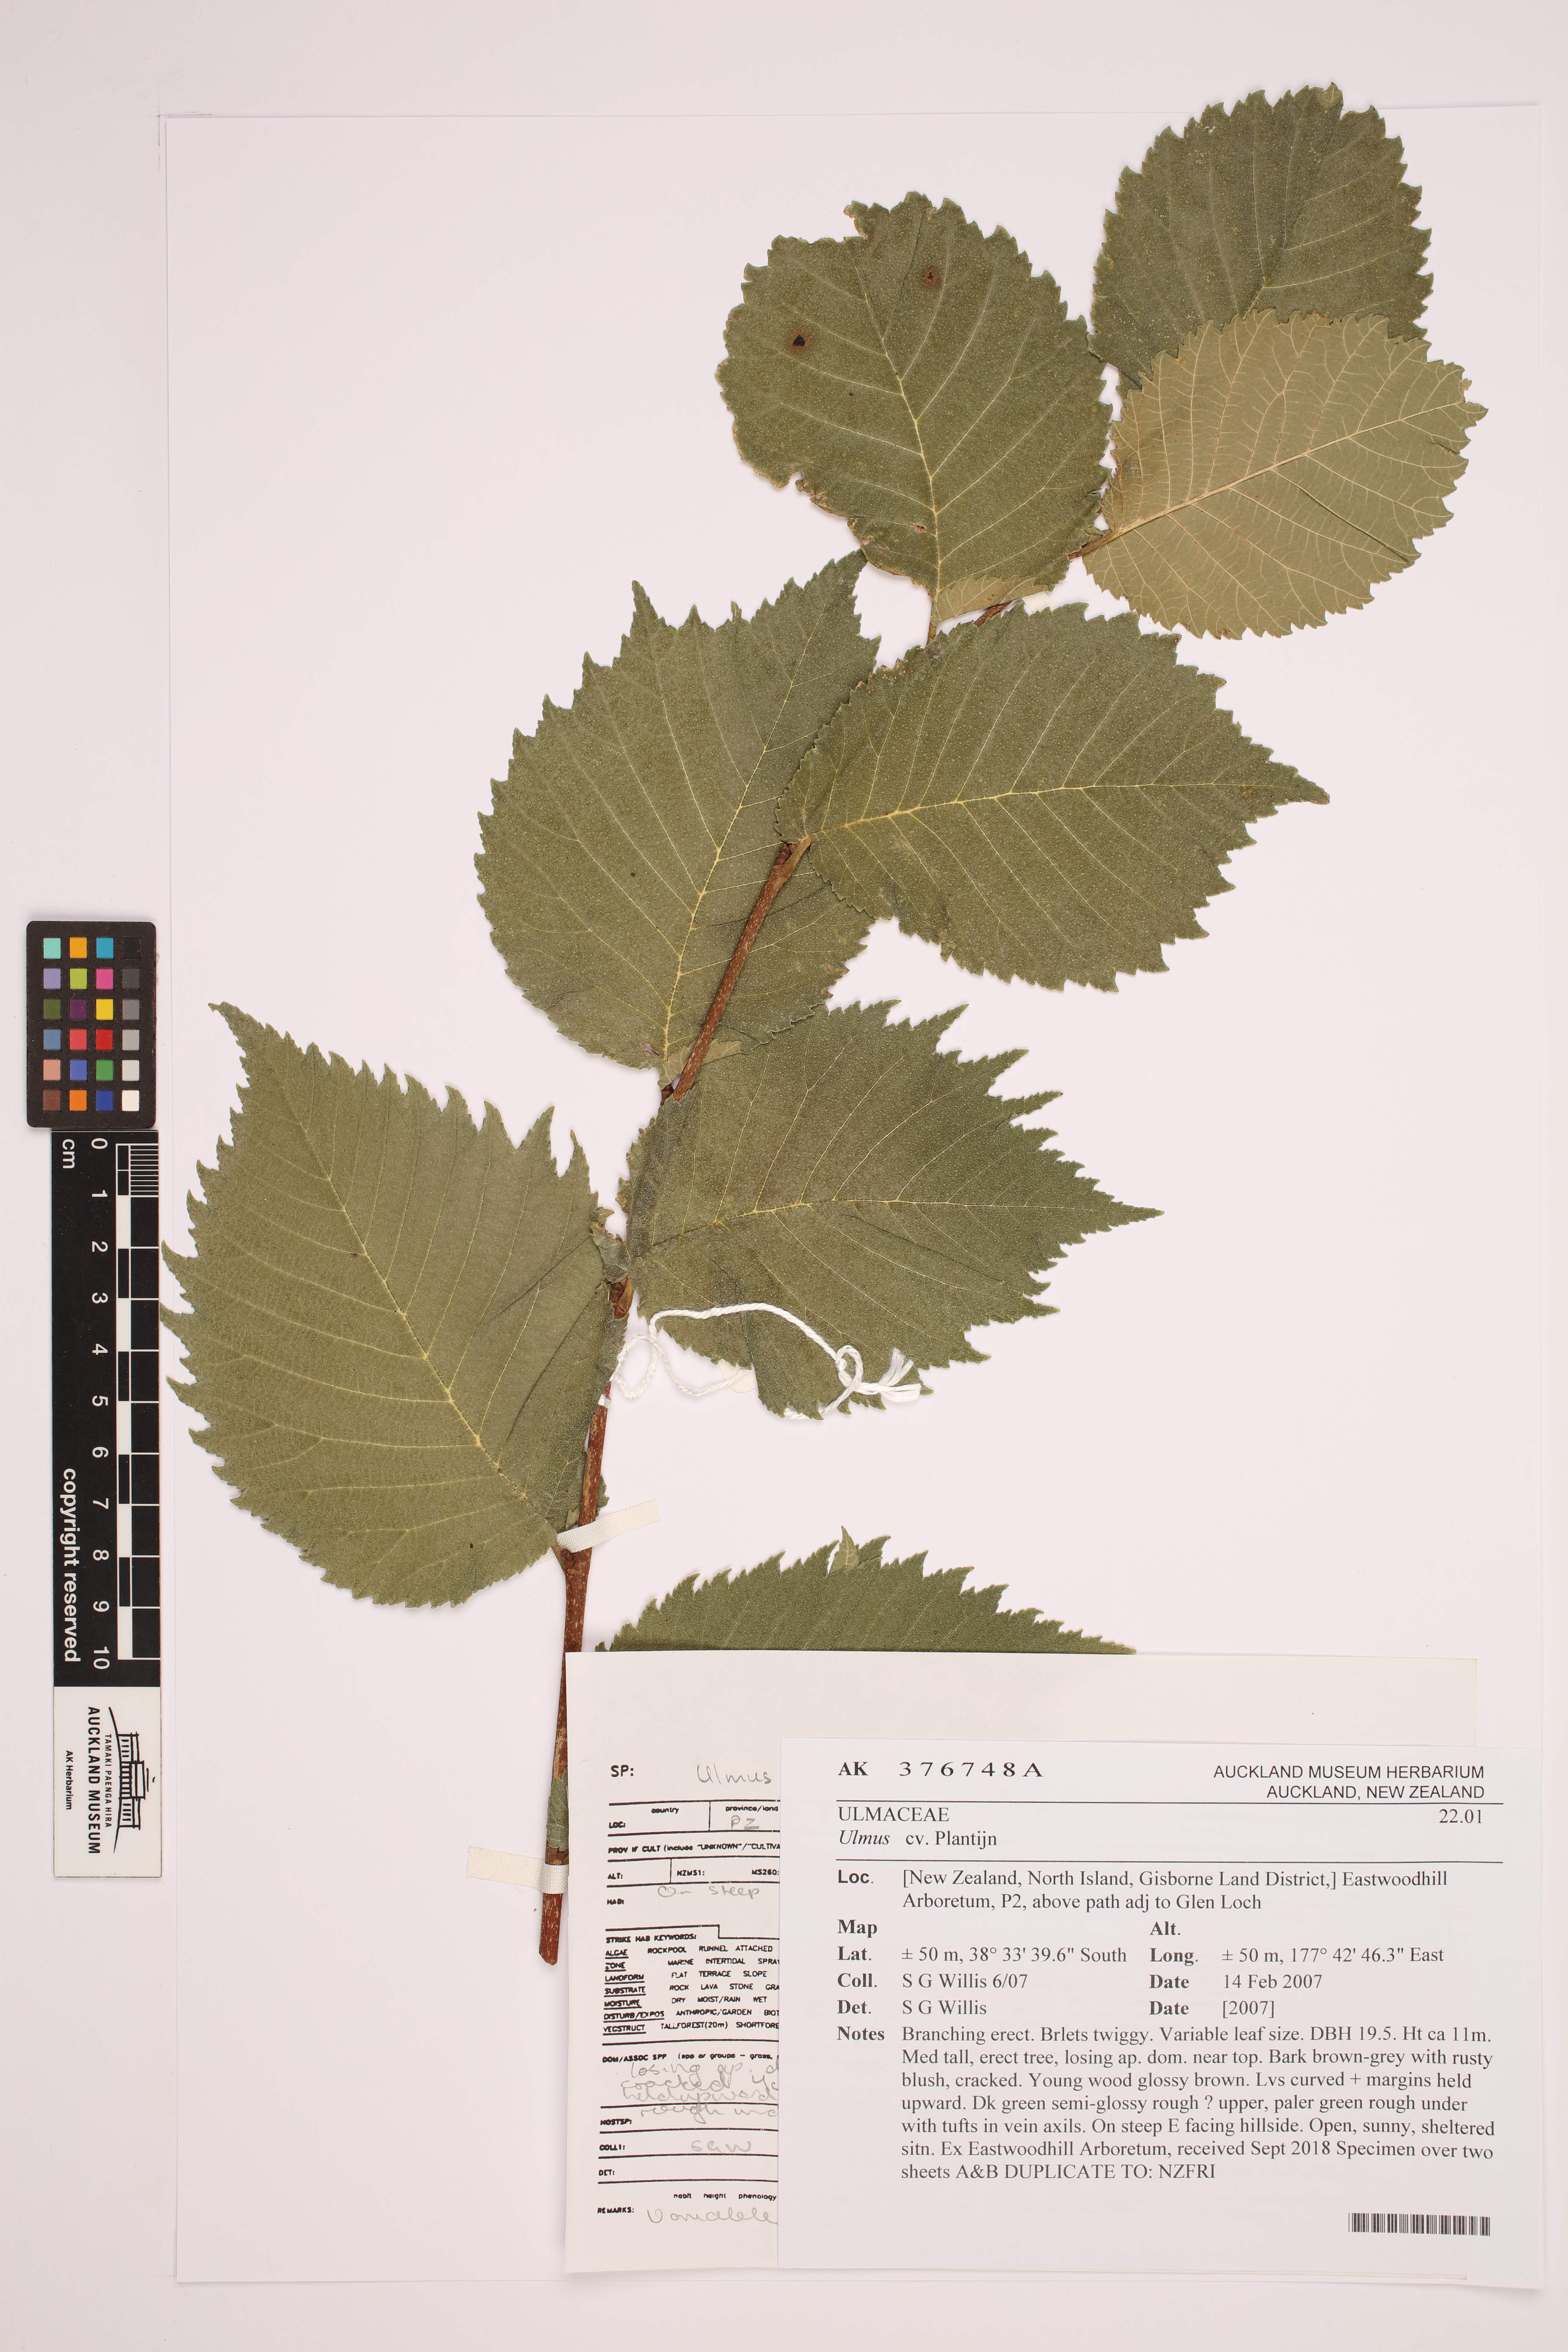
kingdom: Plantae
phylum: Tracheophyta
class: Magnoliopsida
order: Rosales
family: Ulmaceae
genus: Ulmus
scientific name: Ulmus
